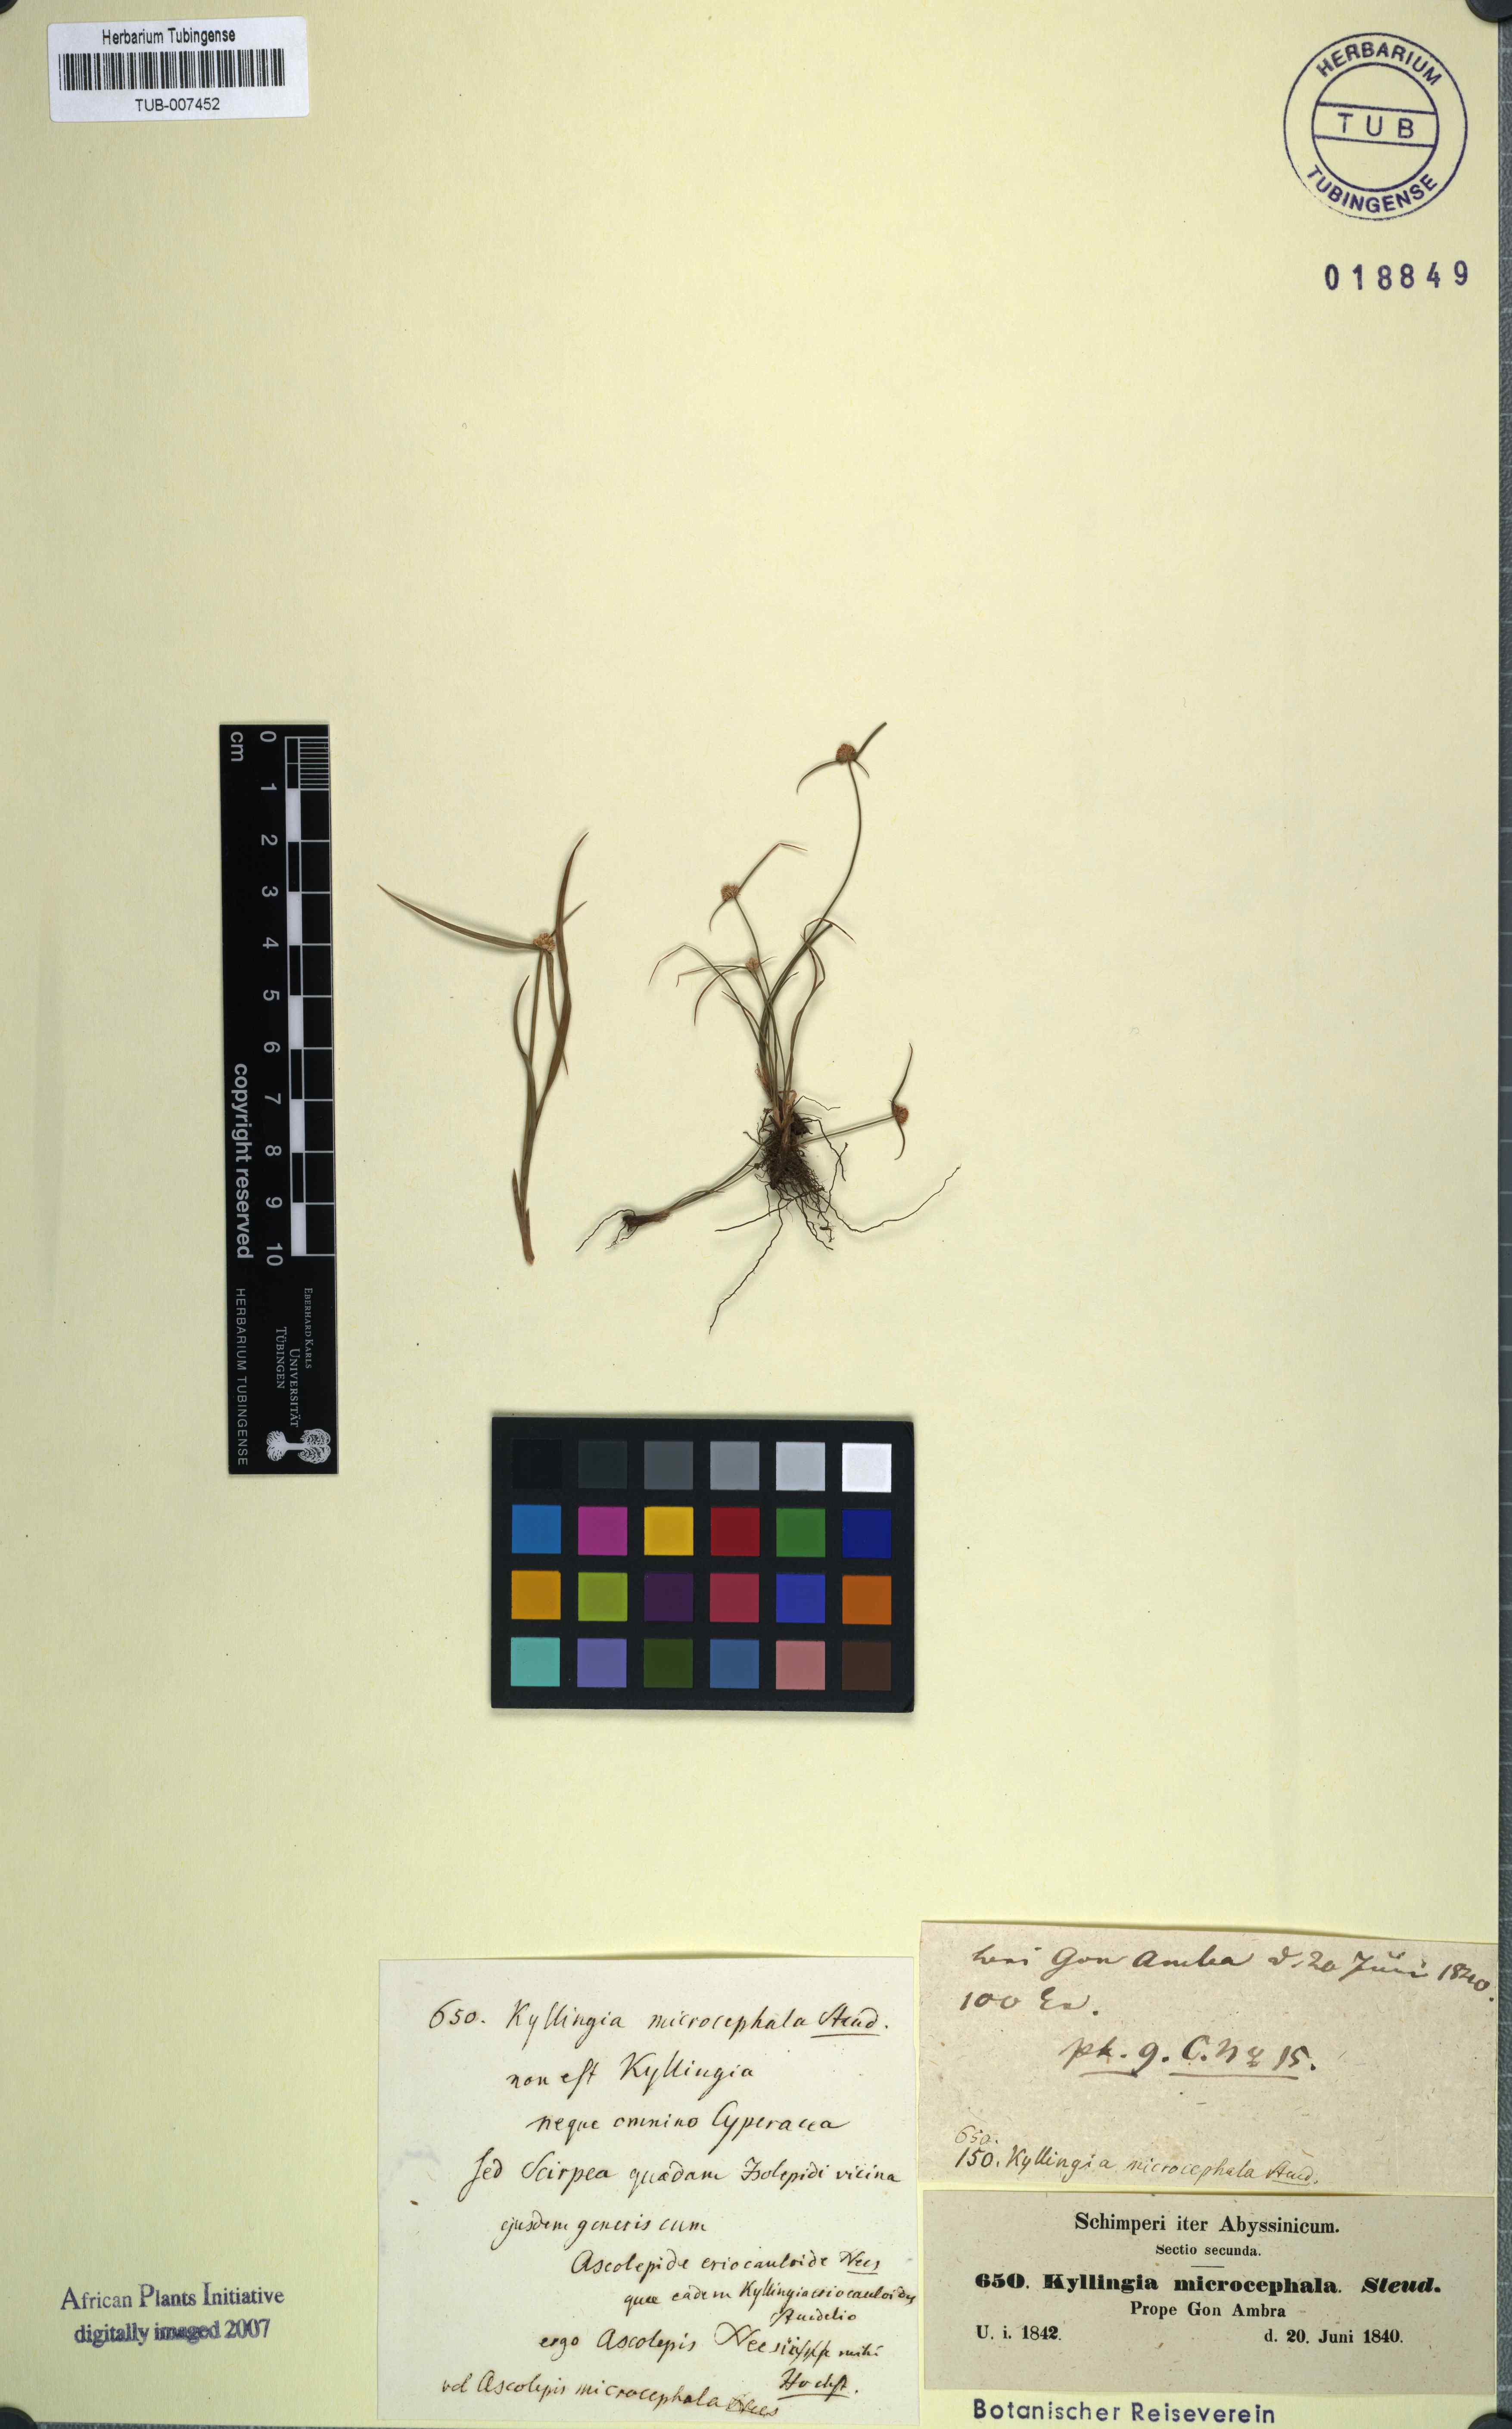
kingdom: Plantae
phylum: Tracheophyta
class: Liliopsida
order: Poales
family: Cyperaceae
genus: Cyperus
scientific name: Cyperus kyllingiella
